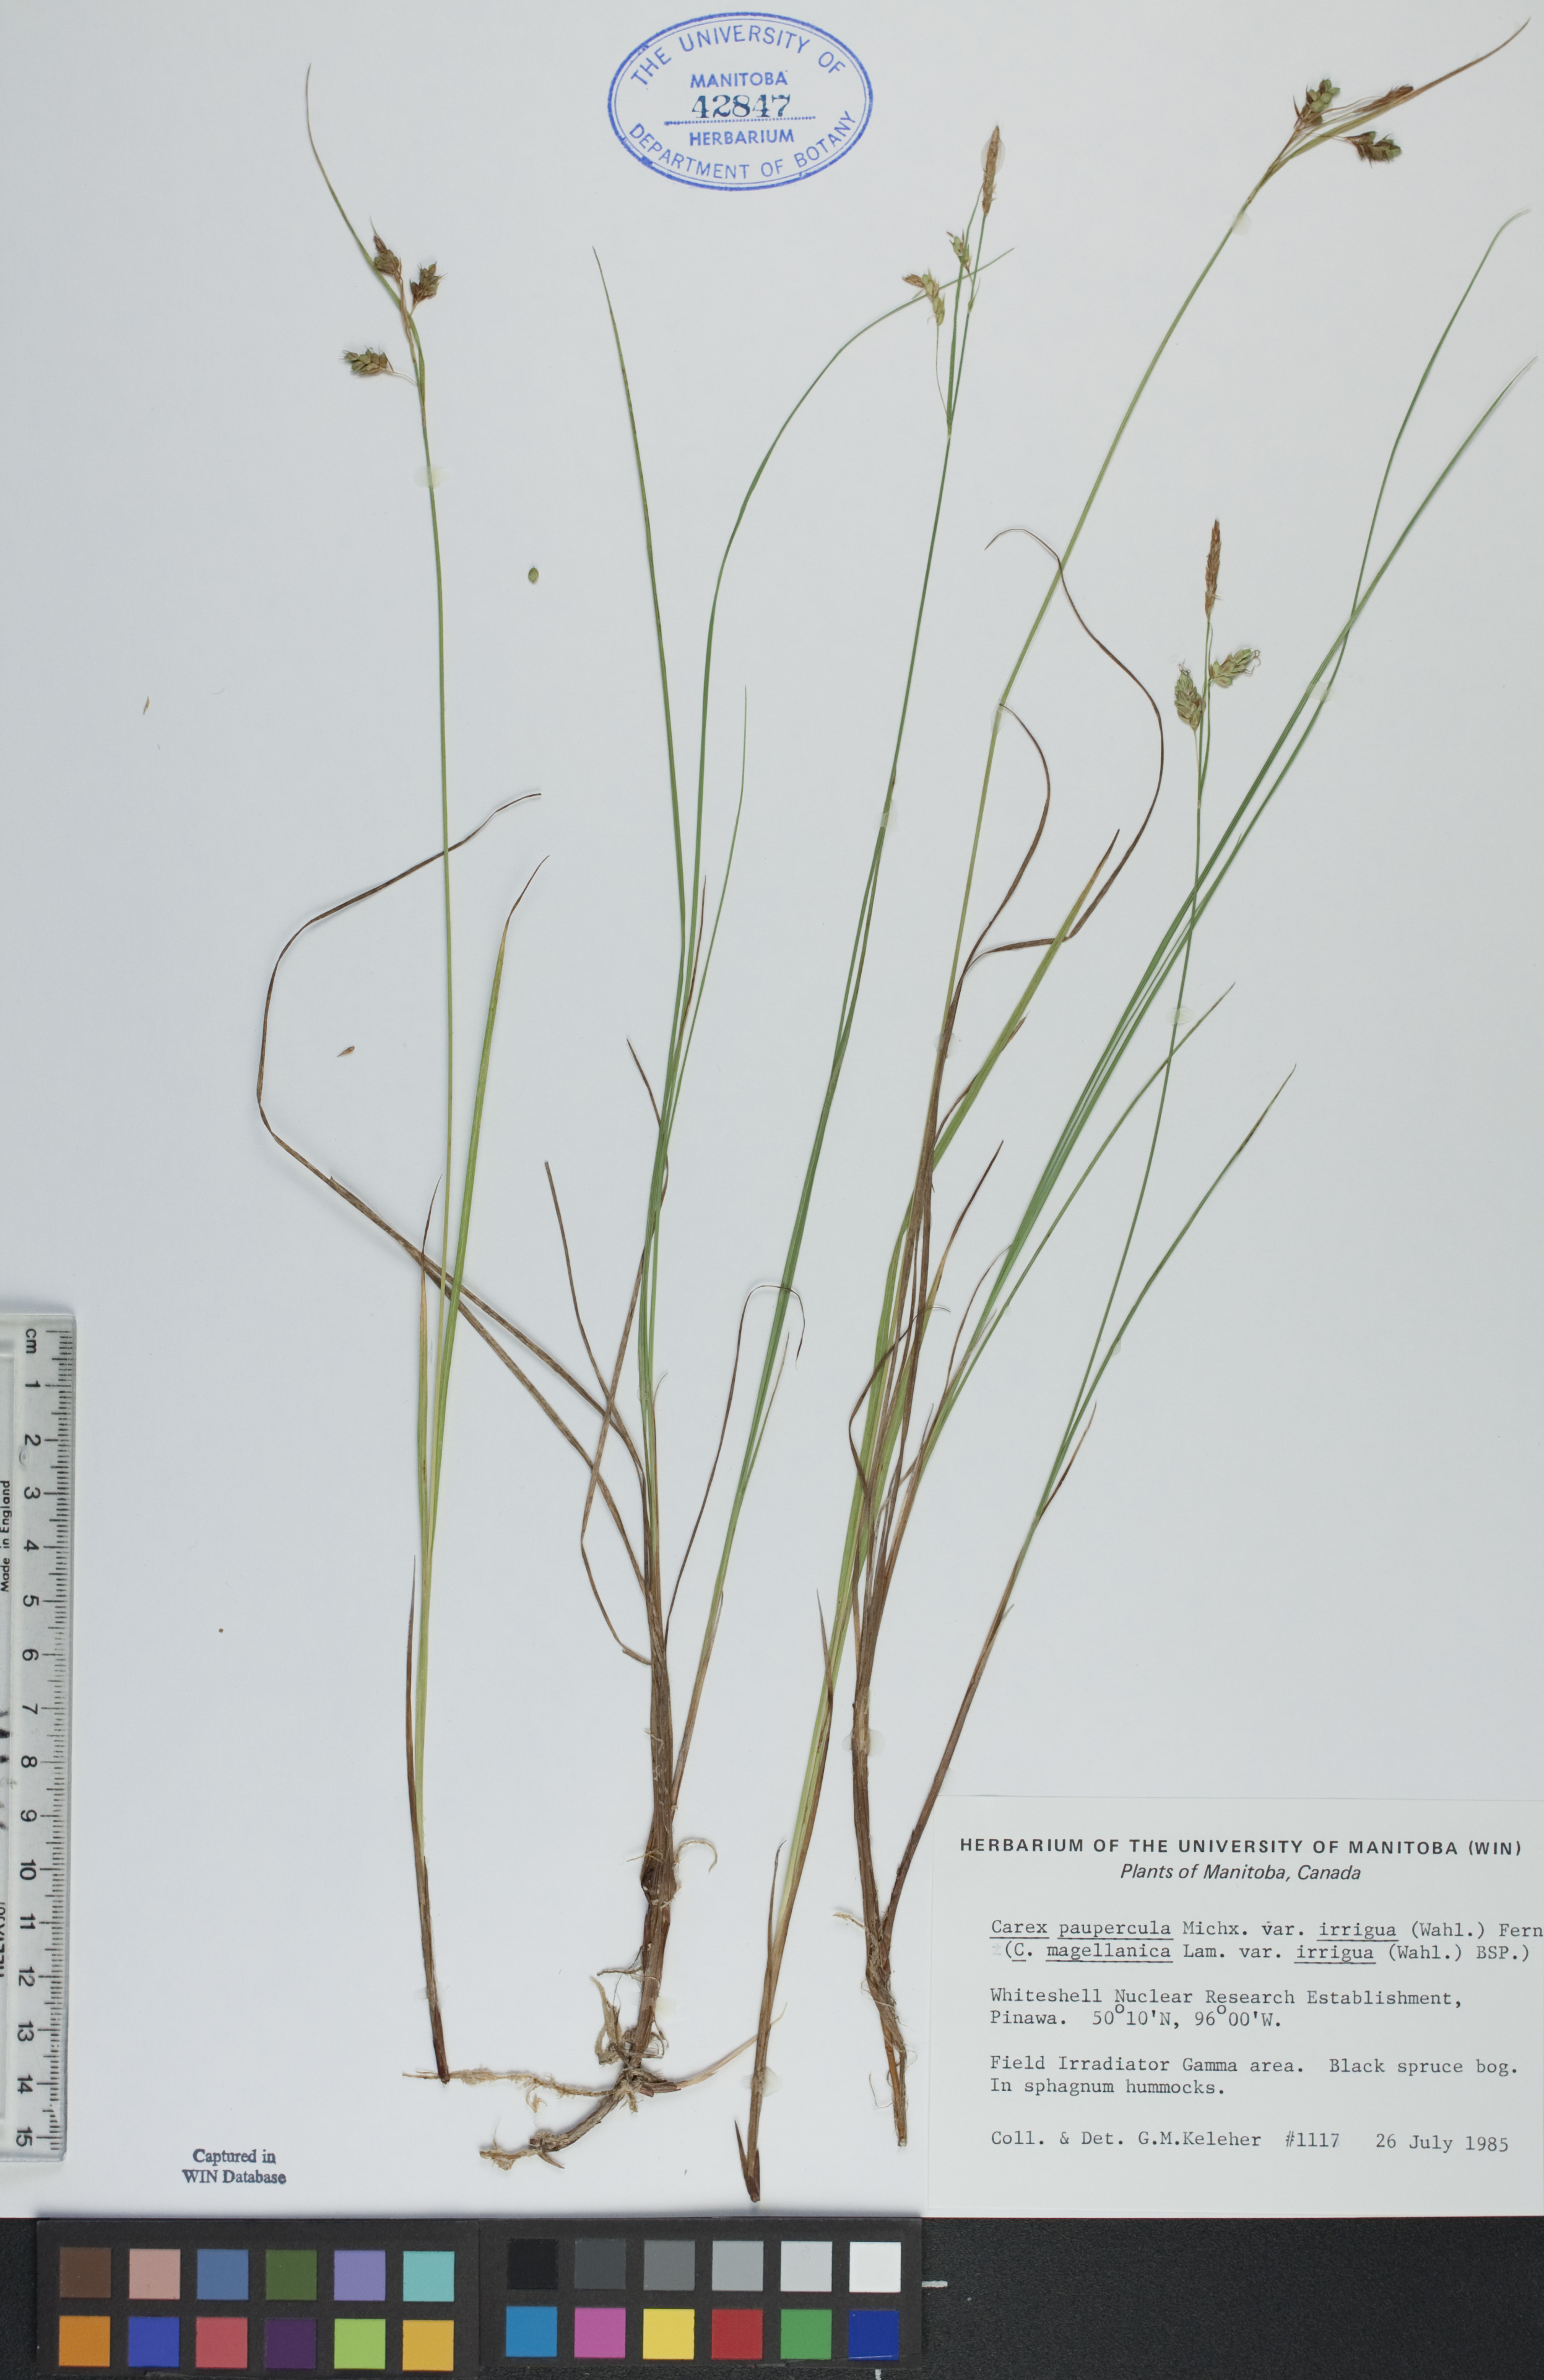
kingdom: Plantae
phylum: Tracheophyta
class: Liliopsida
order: Poales
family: Cyperaceae
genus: Carex
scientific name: Carex magellanica
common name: Bog sedge
